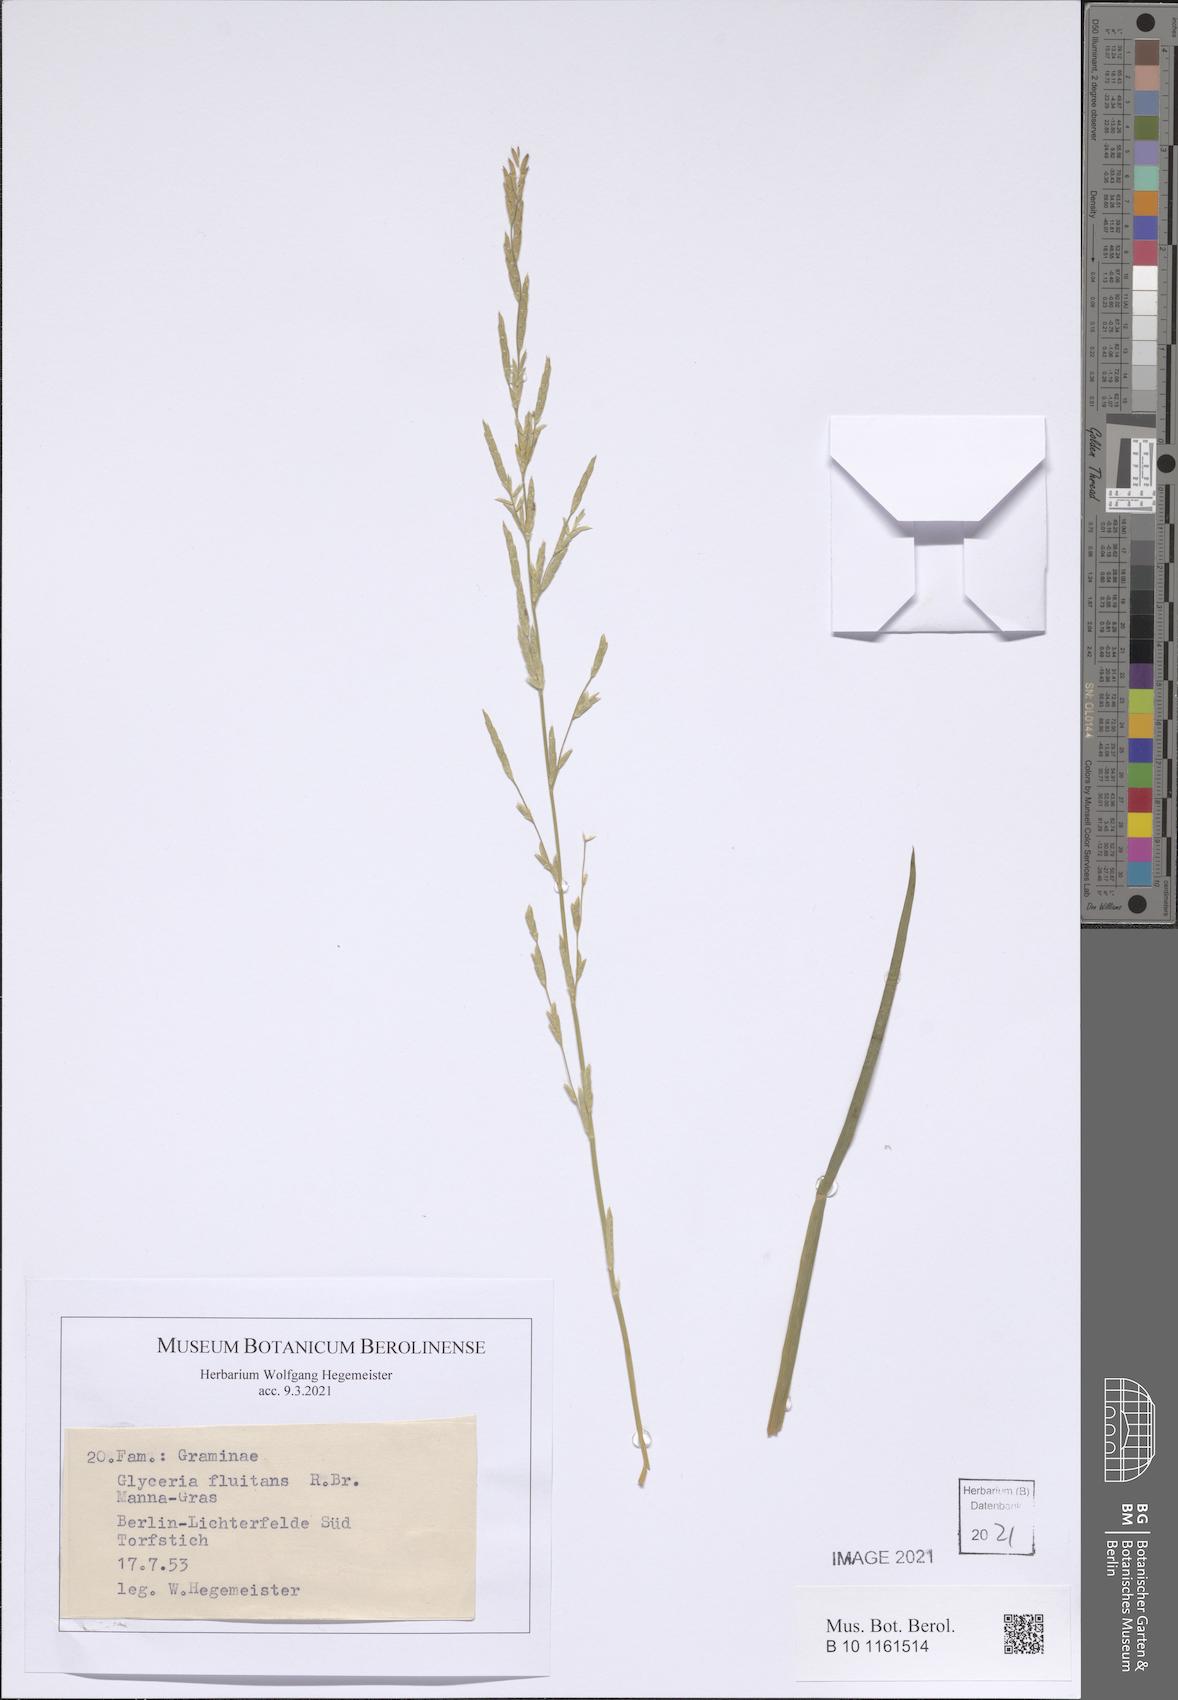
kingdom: Plantae
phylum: Tracheophyta
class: Liliopsida
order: Poales
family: Poaceae
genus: Glyceria
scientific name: Glyceria fluitans
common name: Floating sweet-grass
